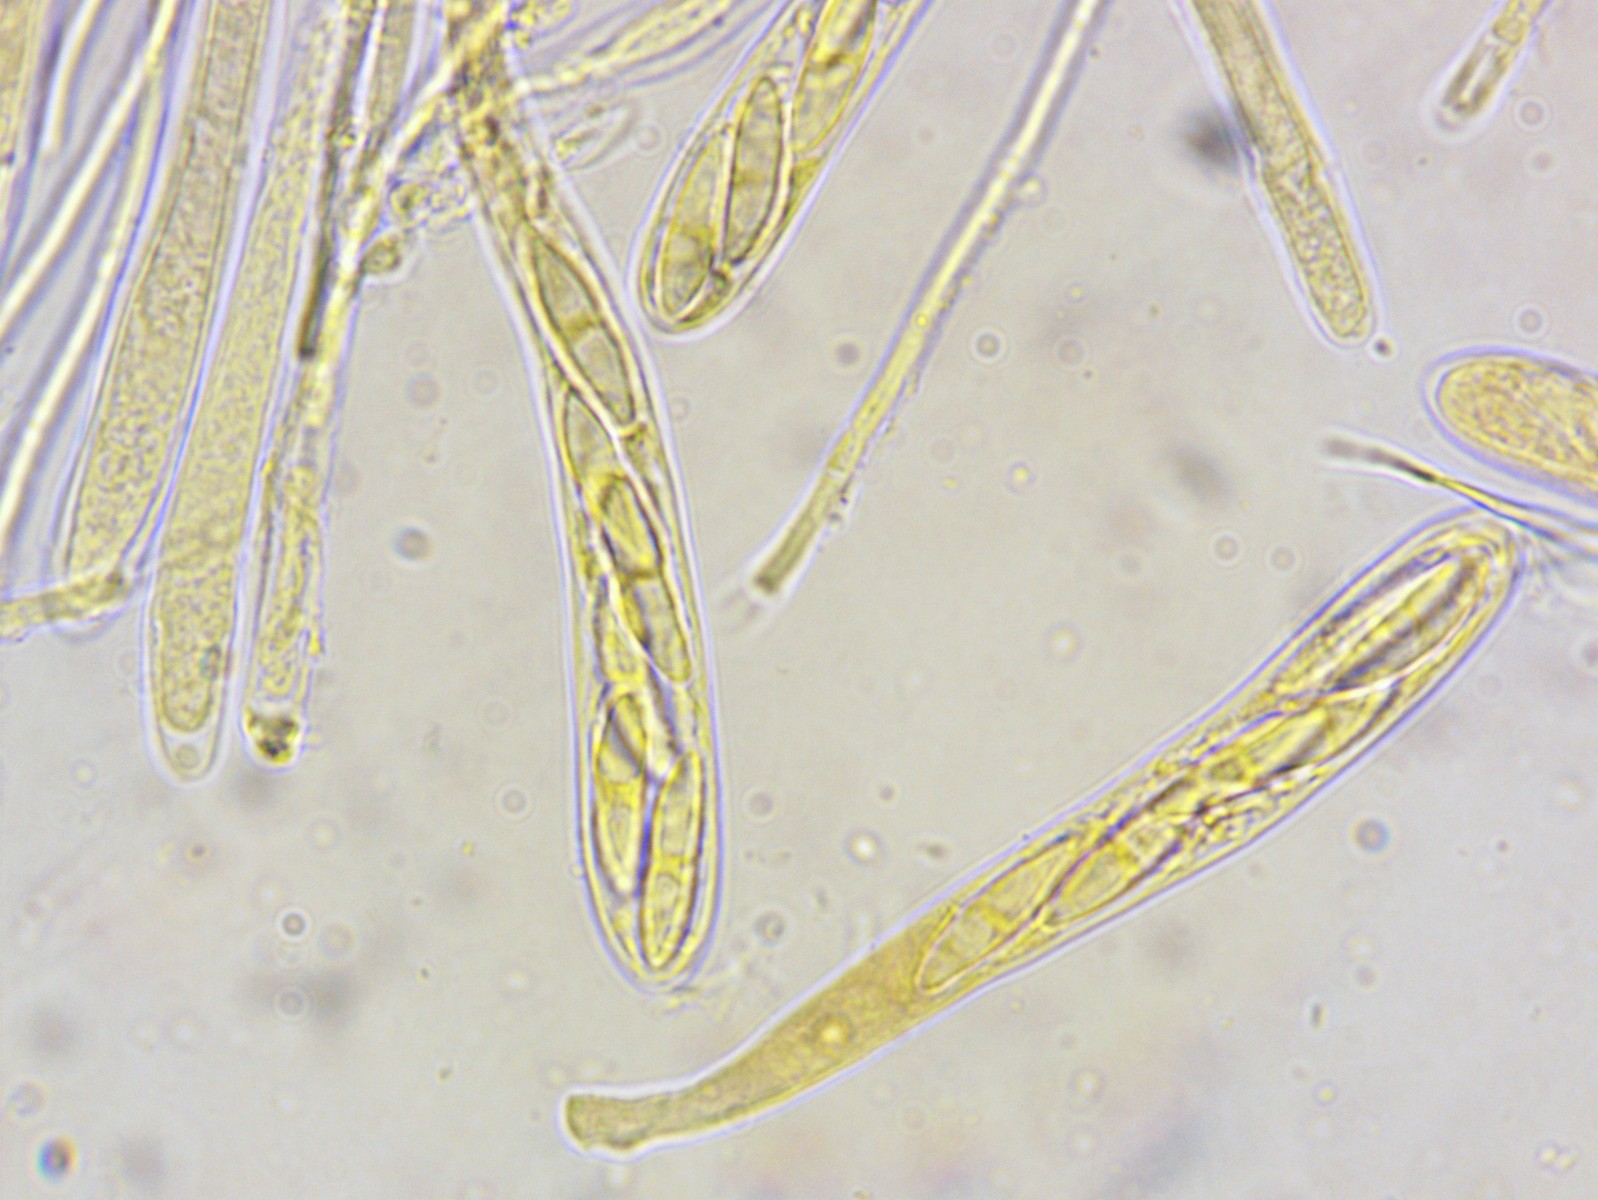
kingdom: Fungi
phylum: Ascomycota
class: Leotiomycetes
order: Helotiales
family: Pezizellaceae
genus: Pezizella
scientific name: Pezizella
